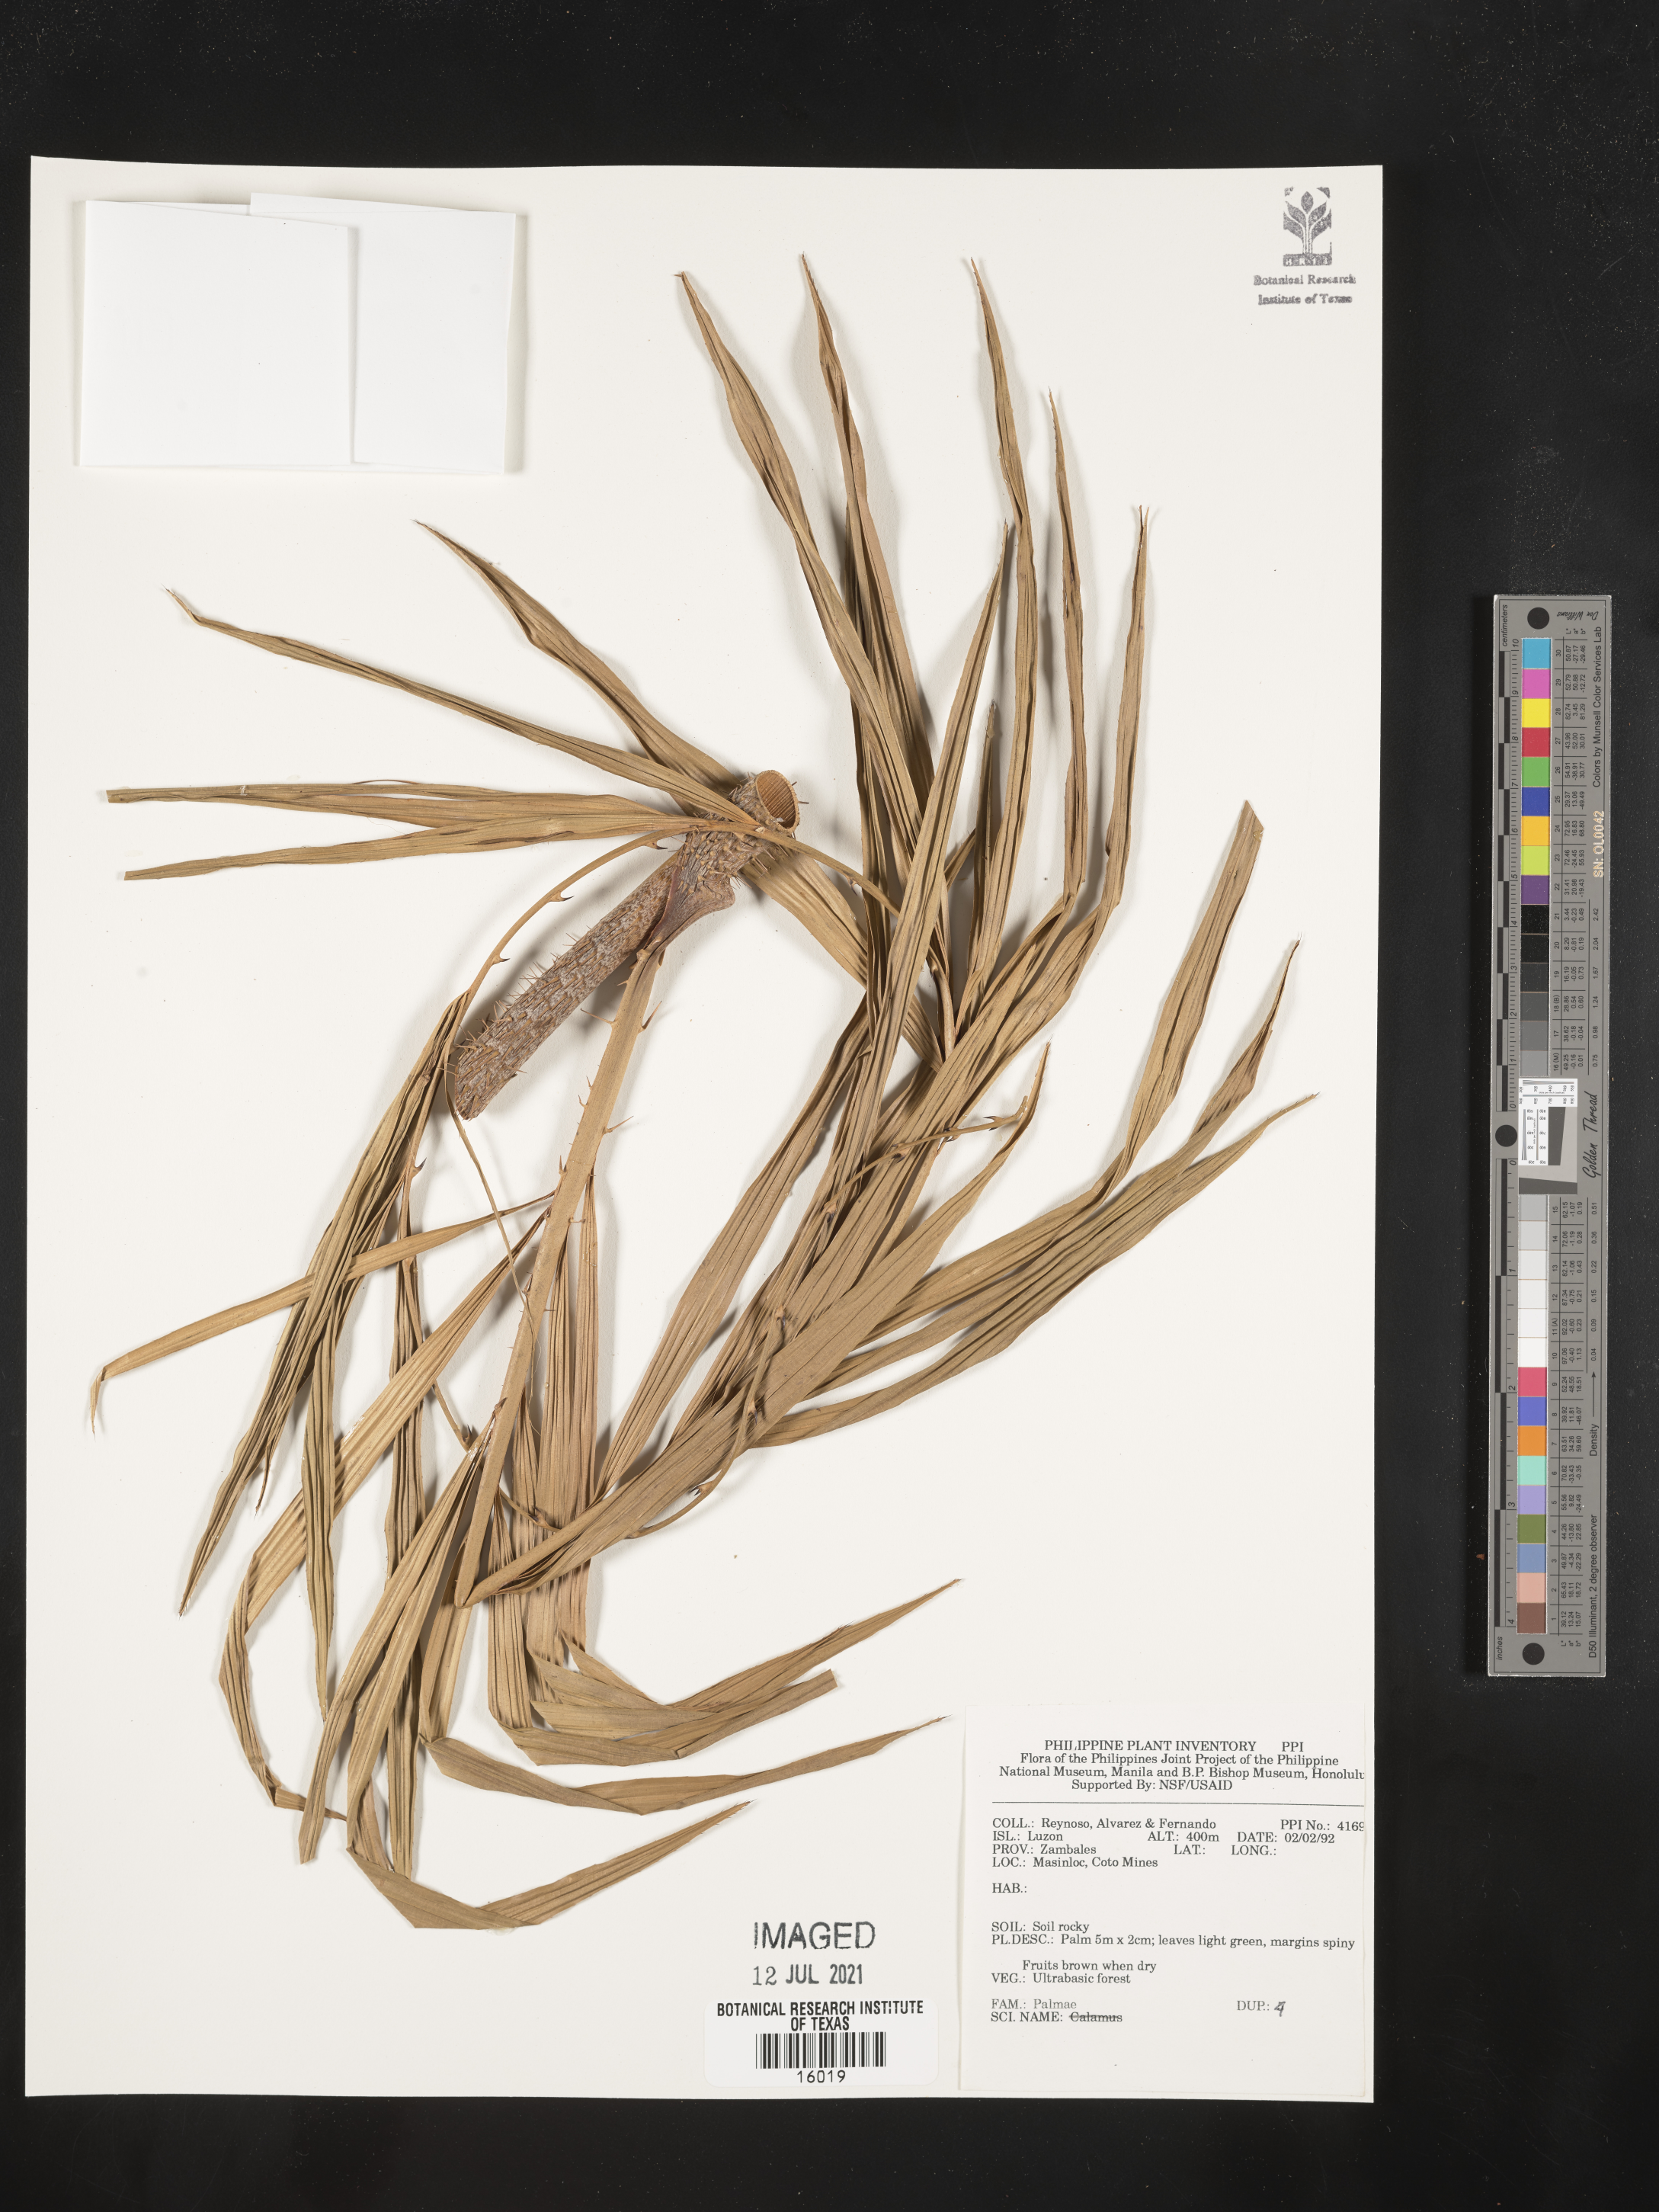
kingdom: Plantae
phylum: Tracheophyta
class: Liliopsida
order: Arecales
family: Arecaceae
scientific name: Arecaceae
